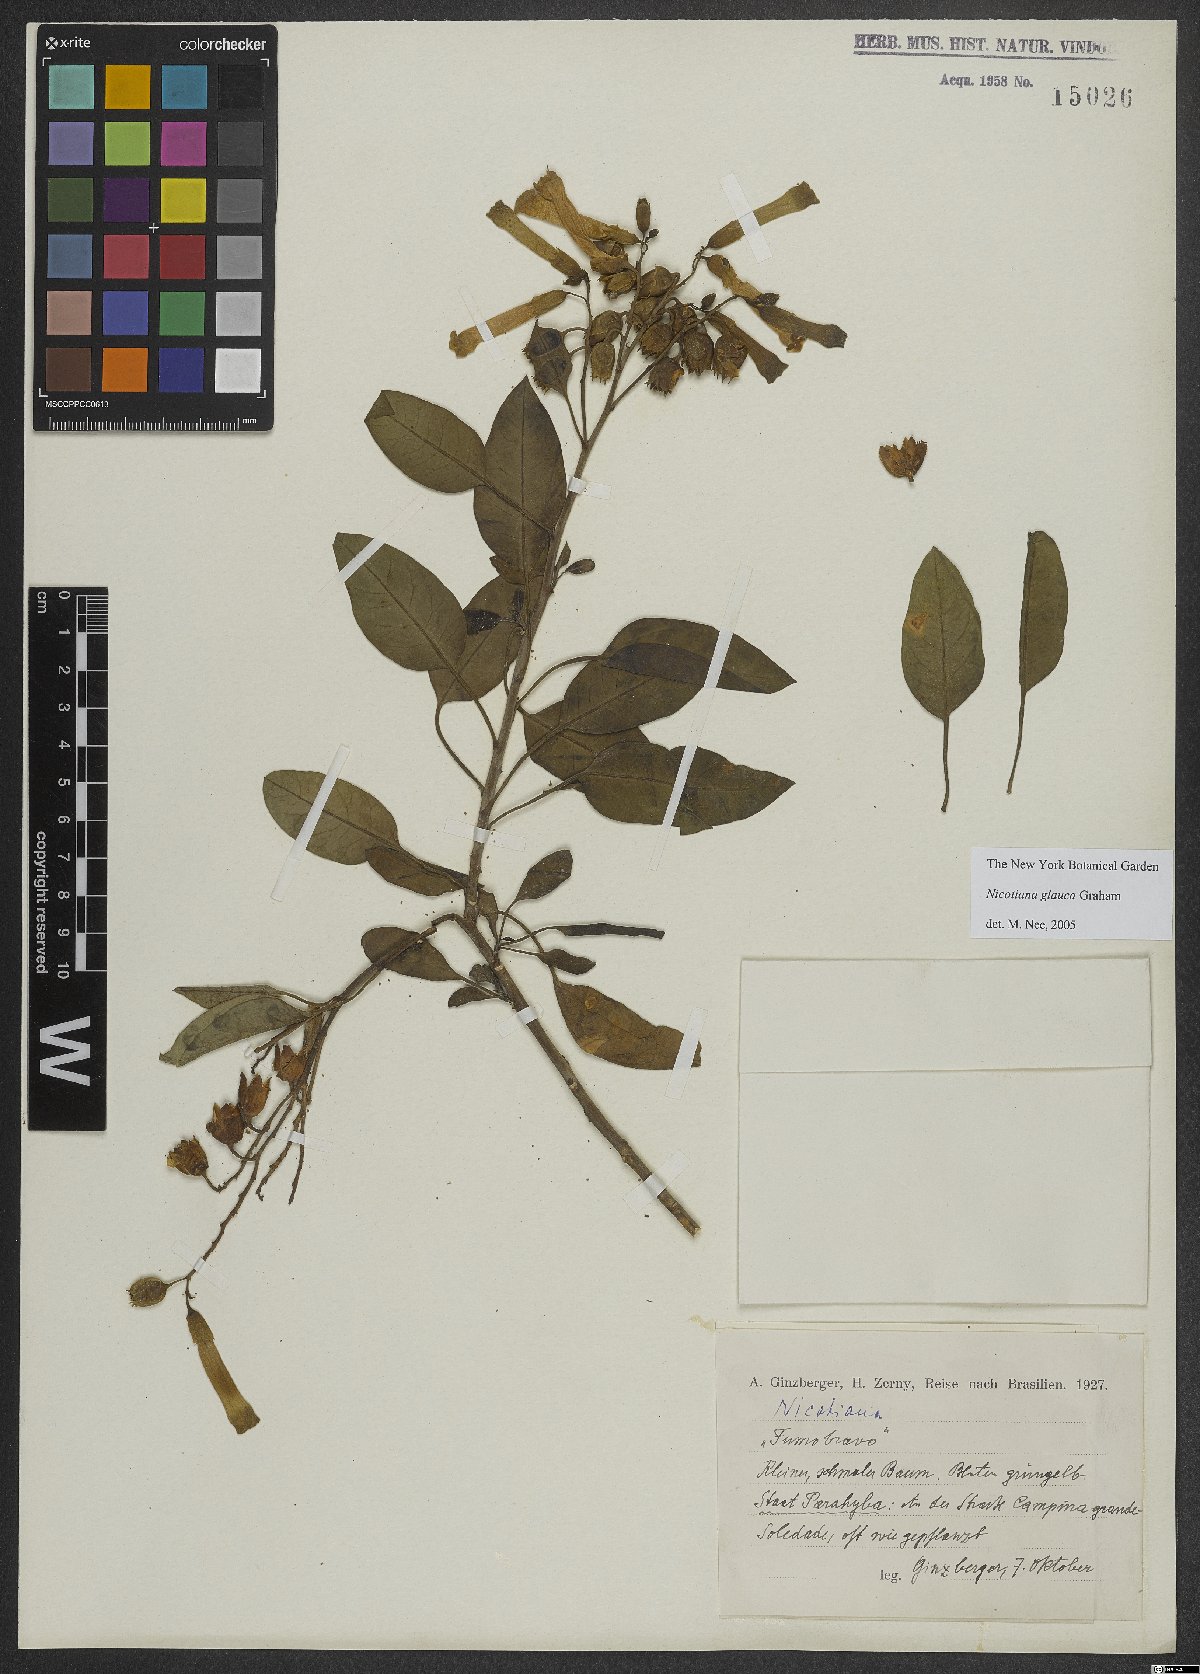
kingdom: Plantae
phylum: Tracheophyta
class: Magnoliopsida
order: Solanales
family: Solanaceae
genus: Nicotiana
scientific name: Nicotiana glauca
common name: Tree tobacco
